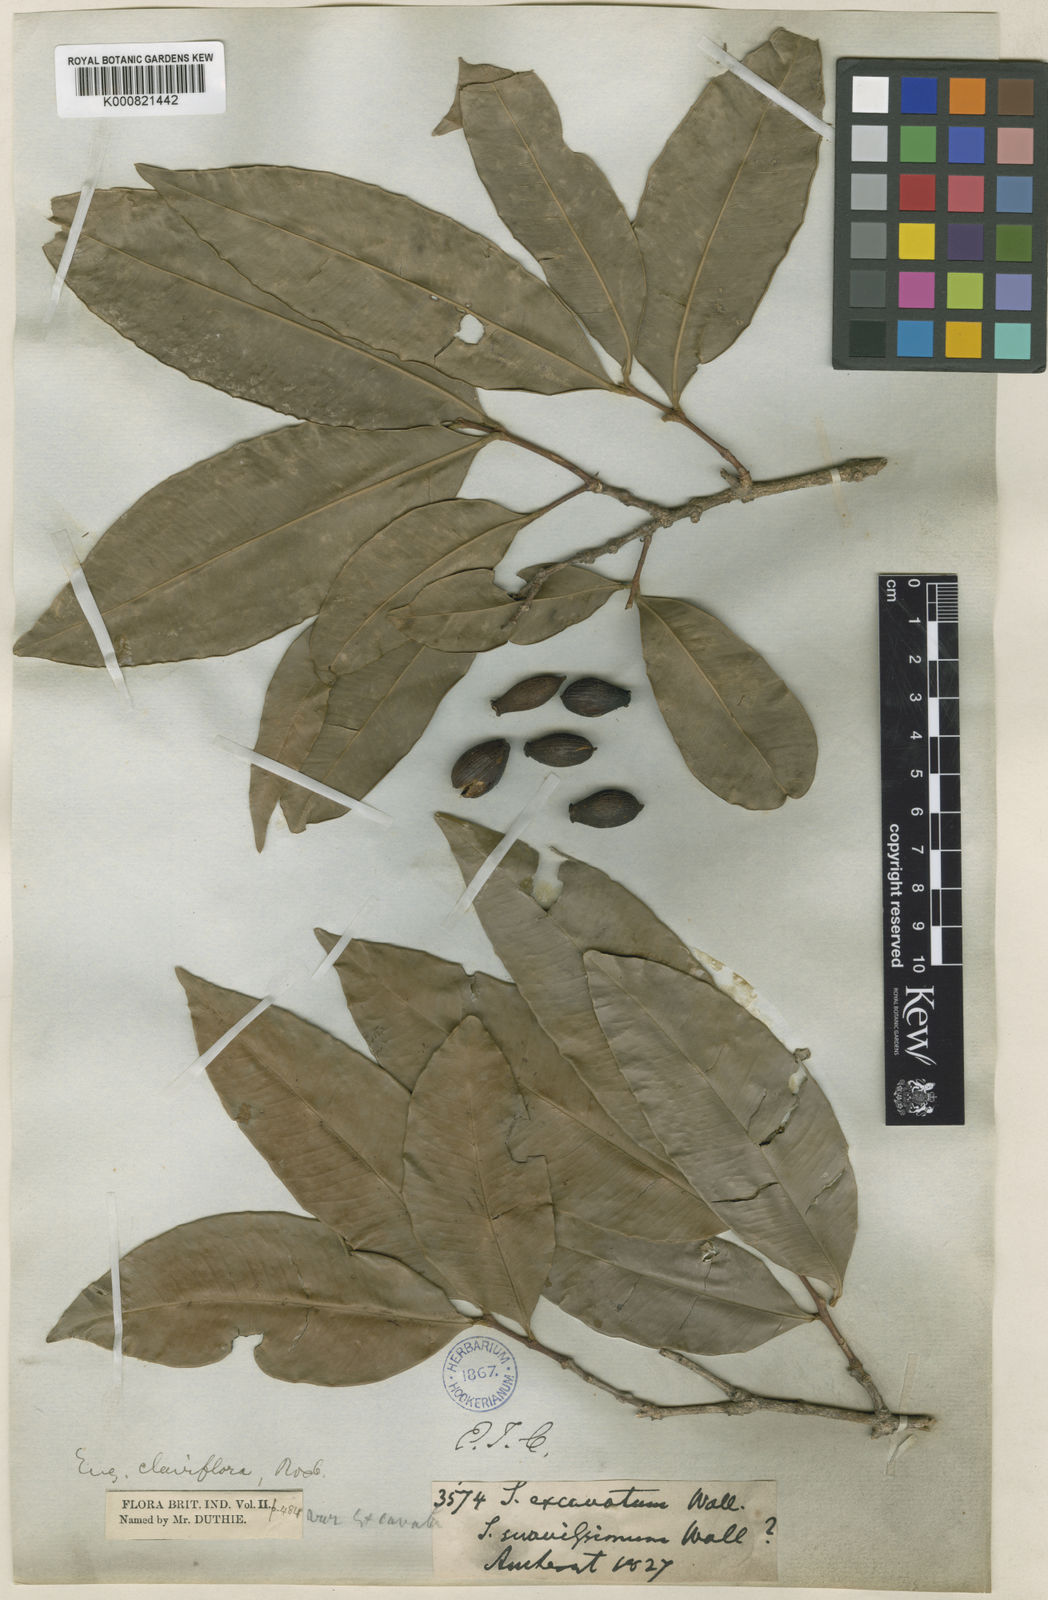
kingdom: Plantae
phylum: Tracheophyta
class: Magnoliopsida
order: Myrtales
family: Myrtaceae
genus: Syzygium
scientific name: Syzygium
